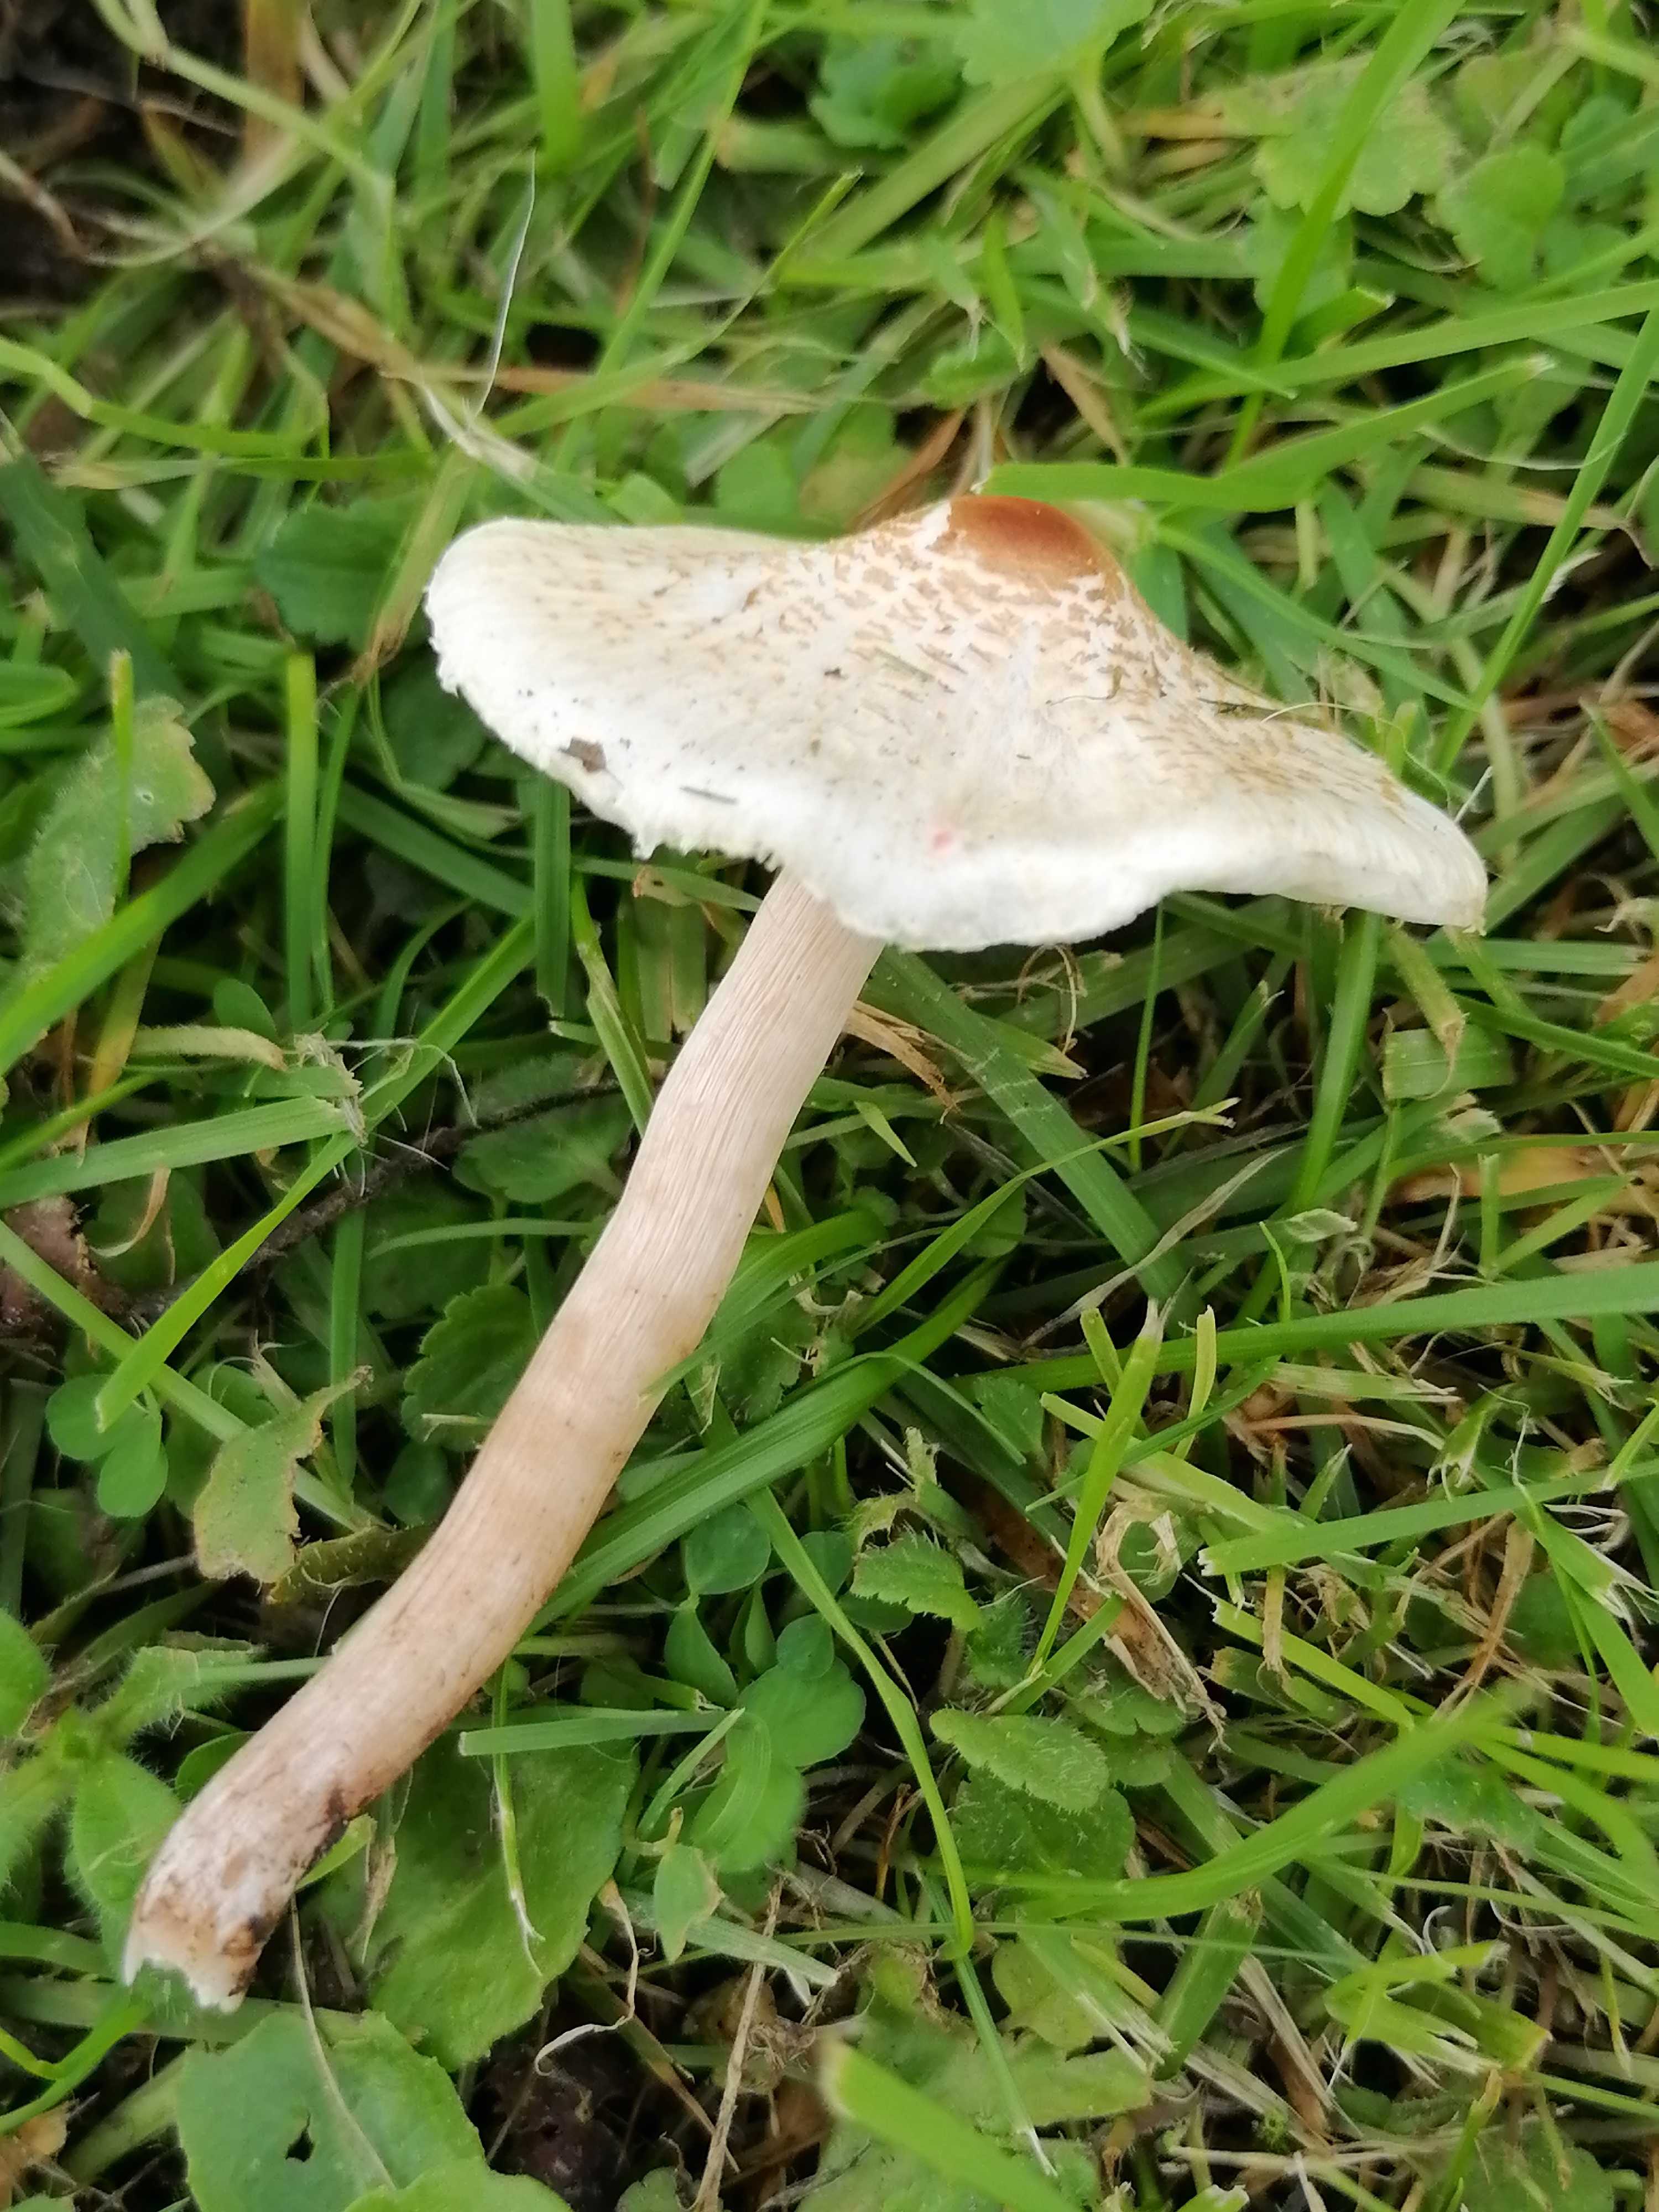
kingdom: Fungi
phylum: Basidiomycota
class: Agaricomycetes
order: Agaricales
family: Agaricaceae
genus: Lepiota
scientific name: Lepiota cristata
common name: stinkende parasolhat
